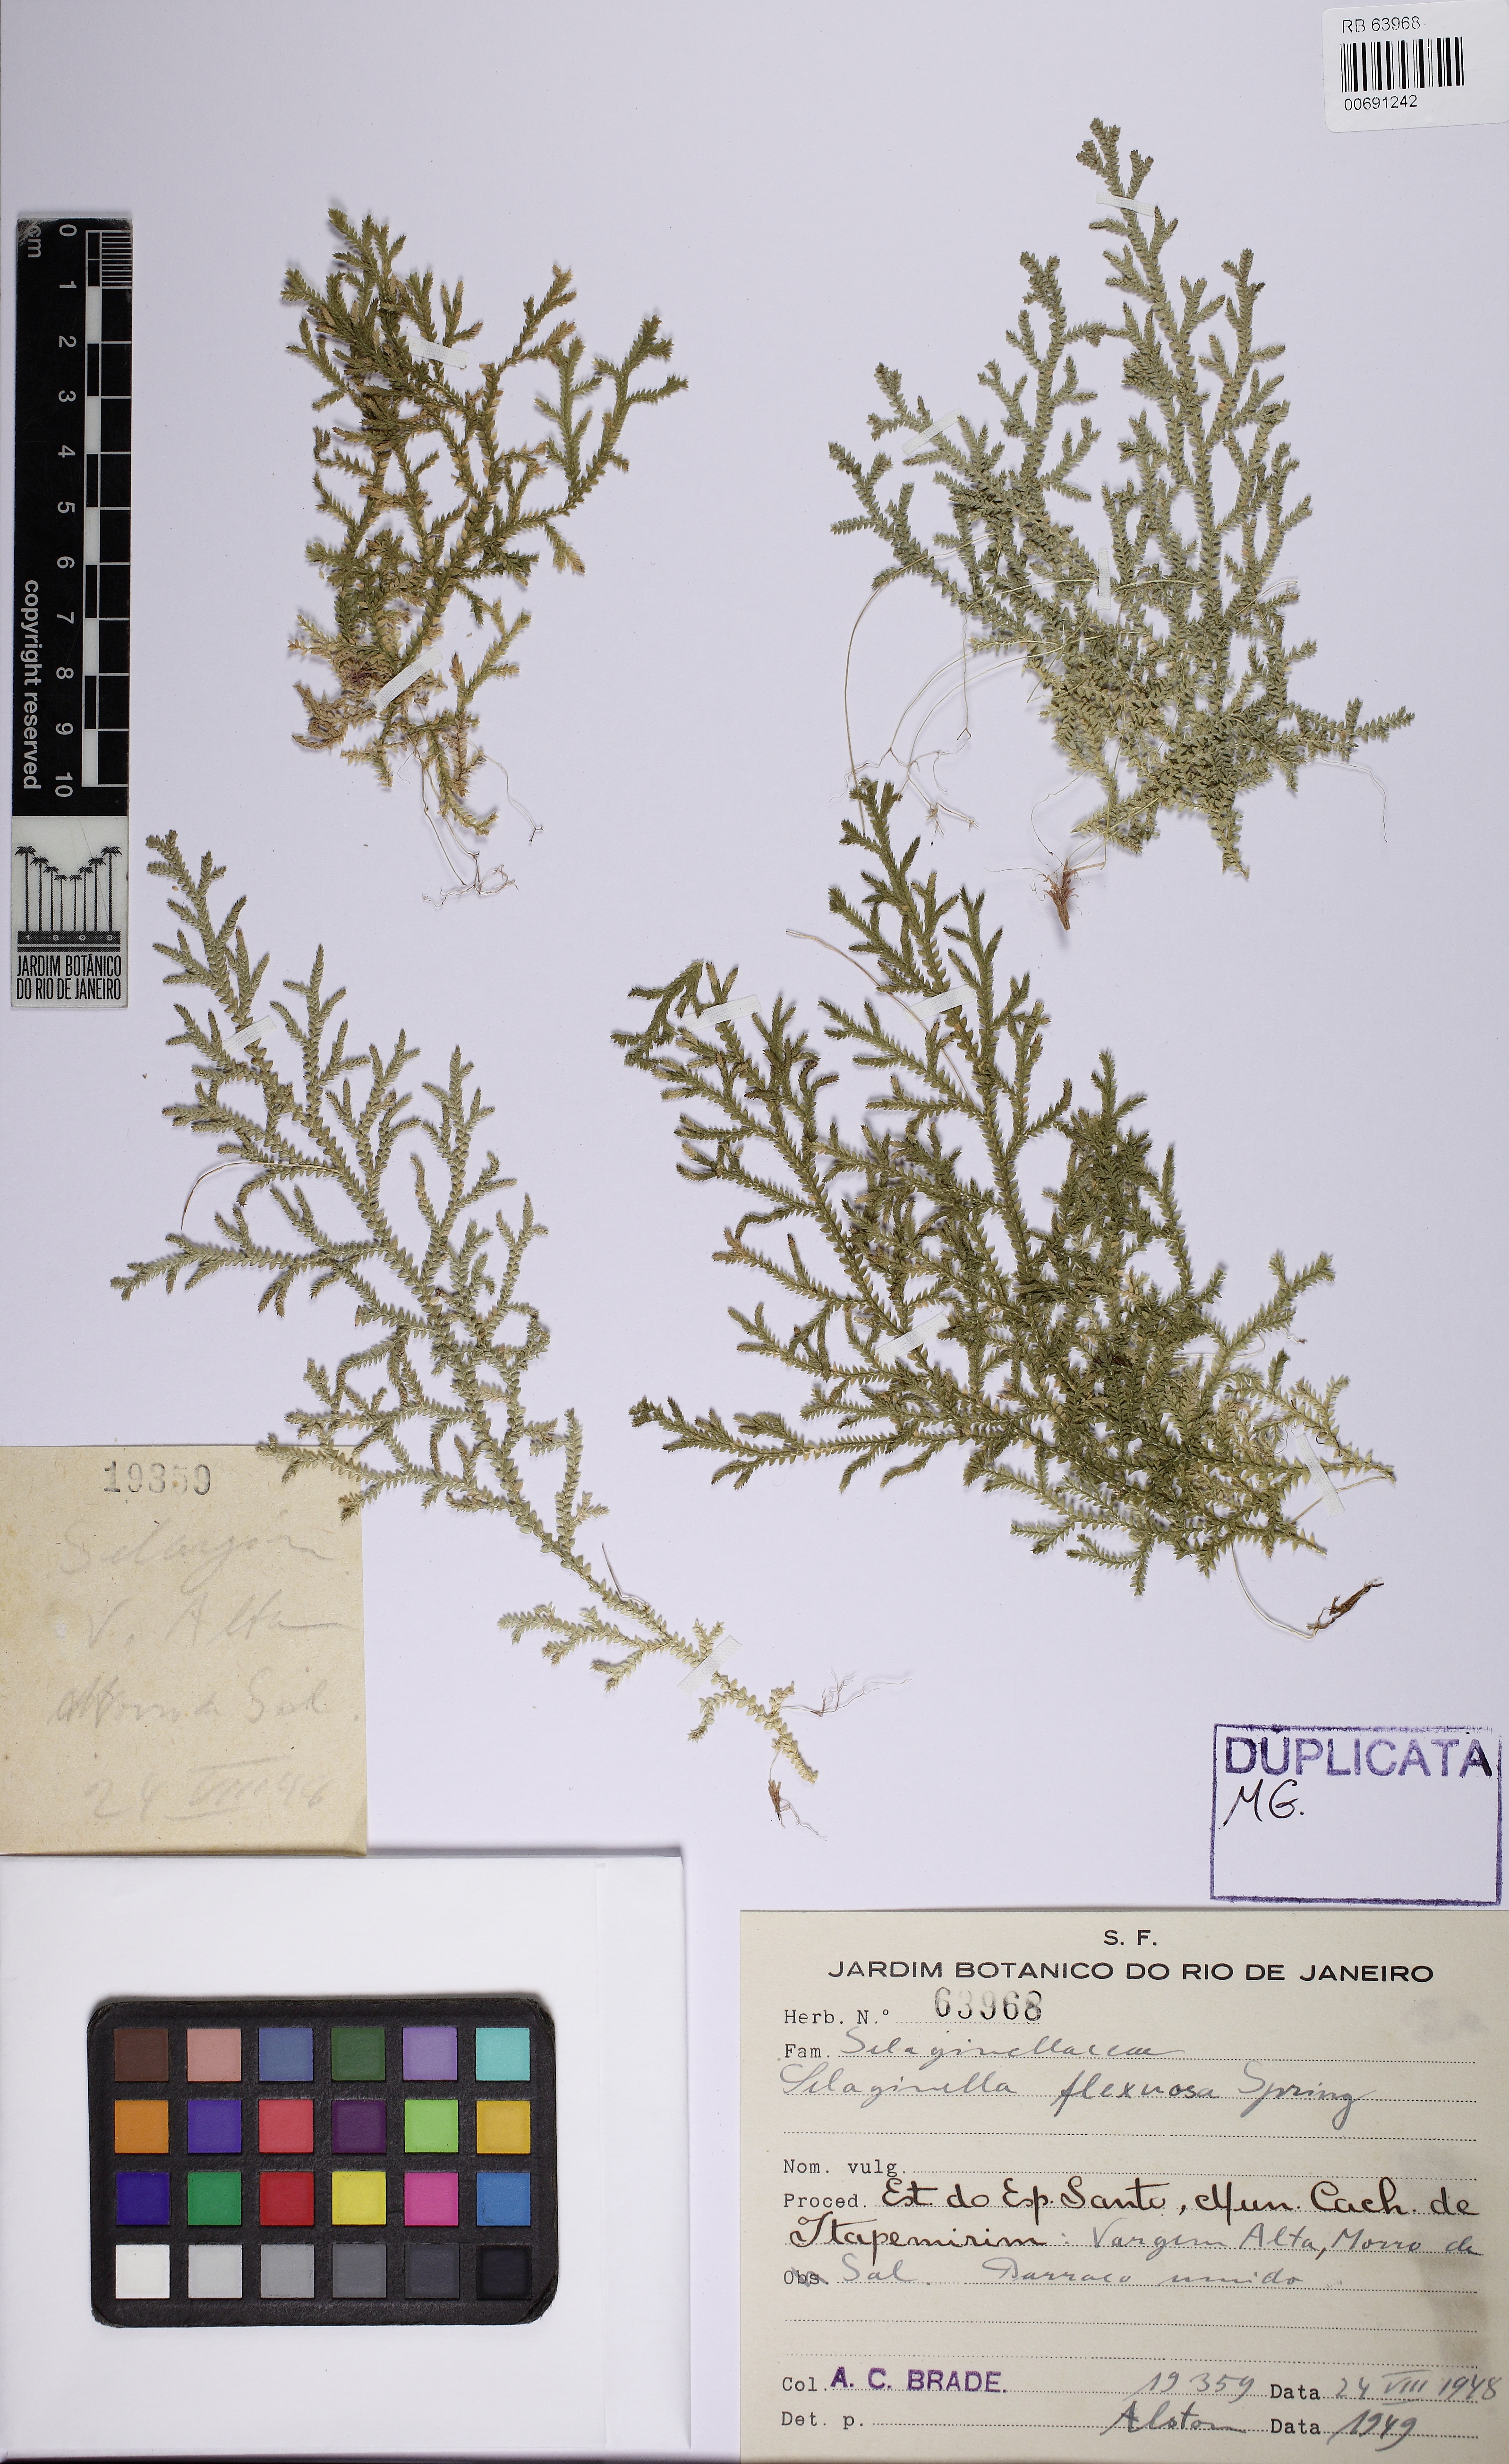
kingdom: Plantae
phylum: Tracheophyta
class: Lycopodiopsida
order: Selaginellales
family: Selaginellaceae
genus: Selaginella
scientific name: Selaginella flexuosa
